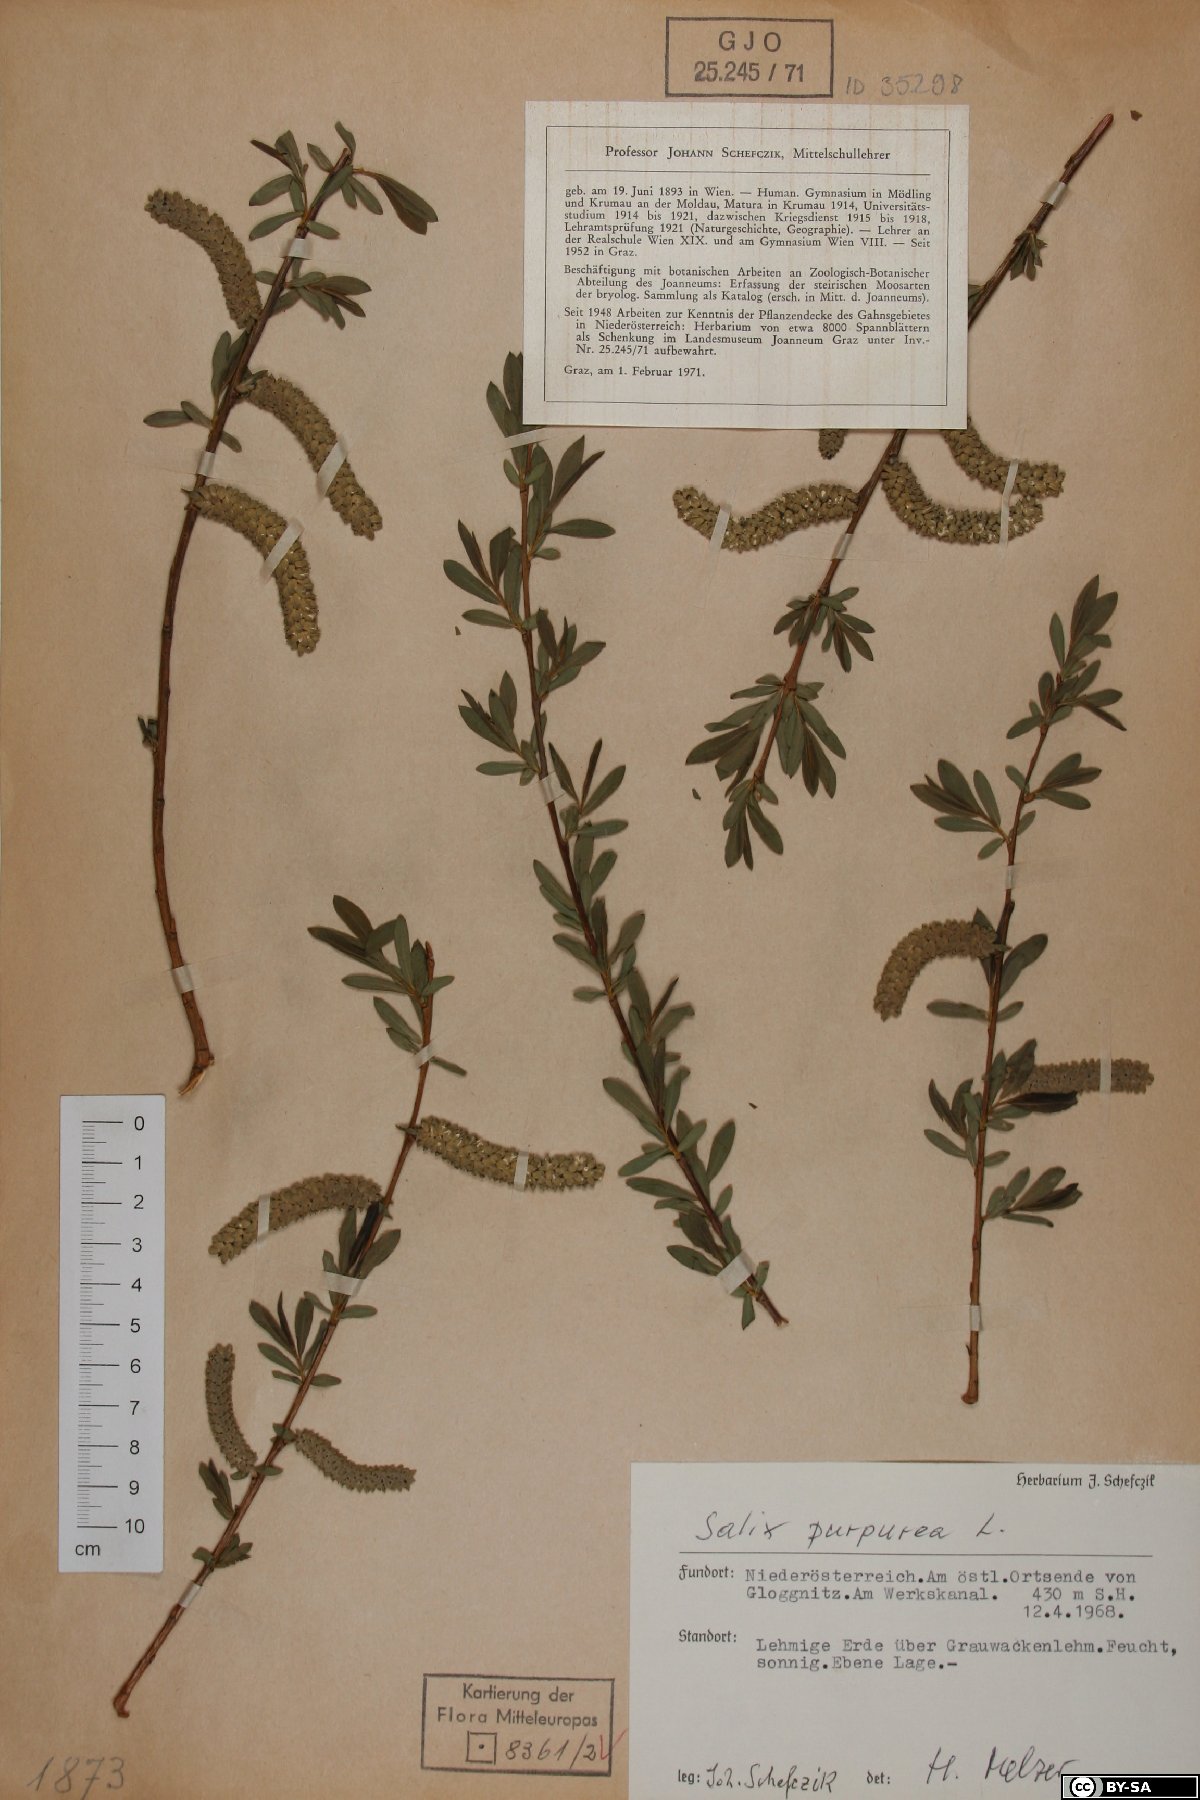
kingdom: Fungi
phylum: Ascomycota
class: Leotiomycetes
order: Helotiales
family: Lachnaceae
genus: Lachnellula
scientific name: Lachnellula subtilissima
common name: Conifer disco
